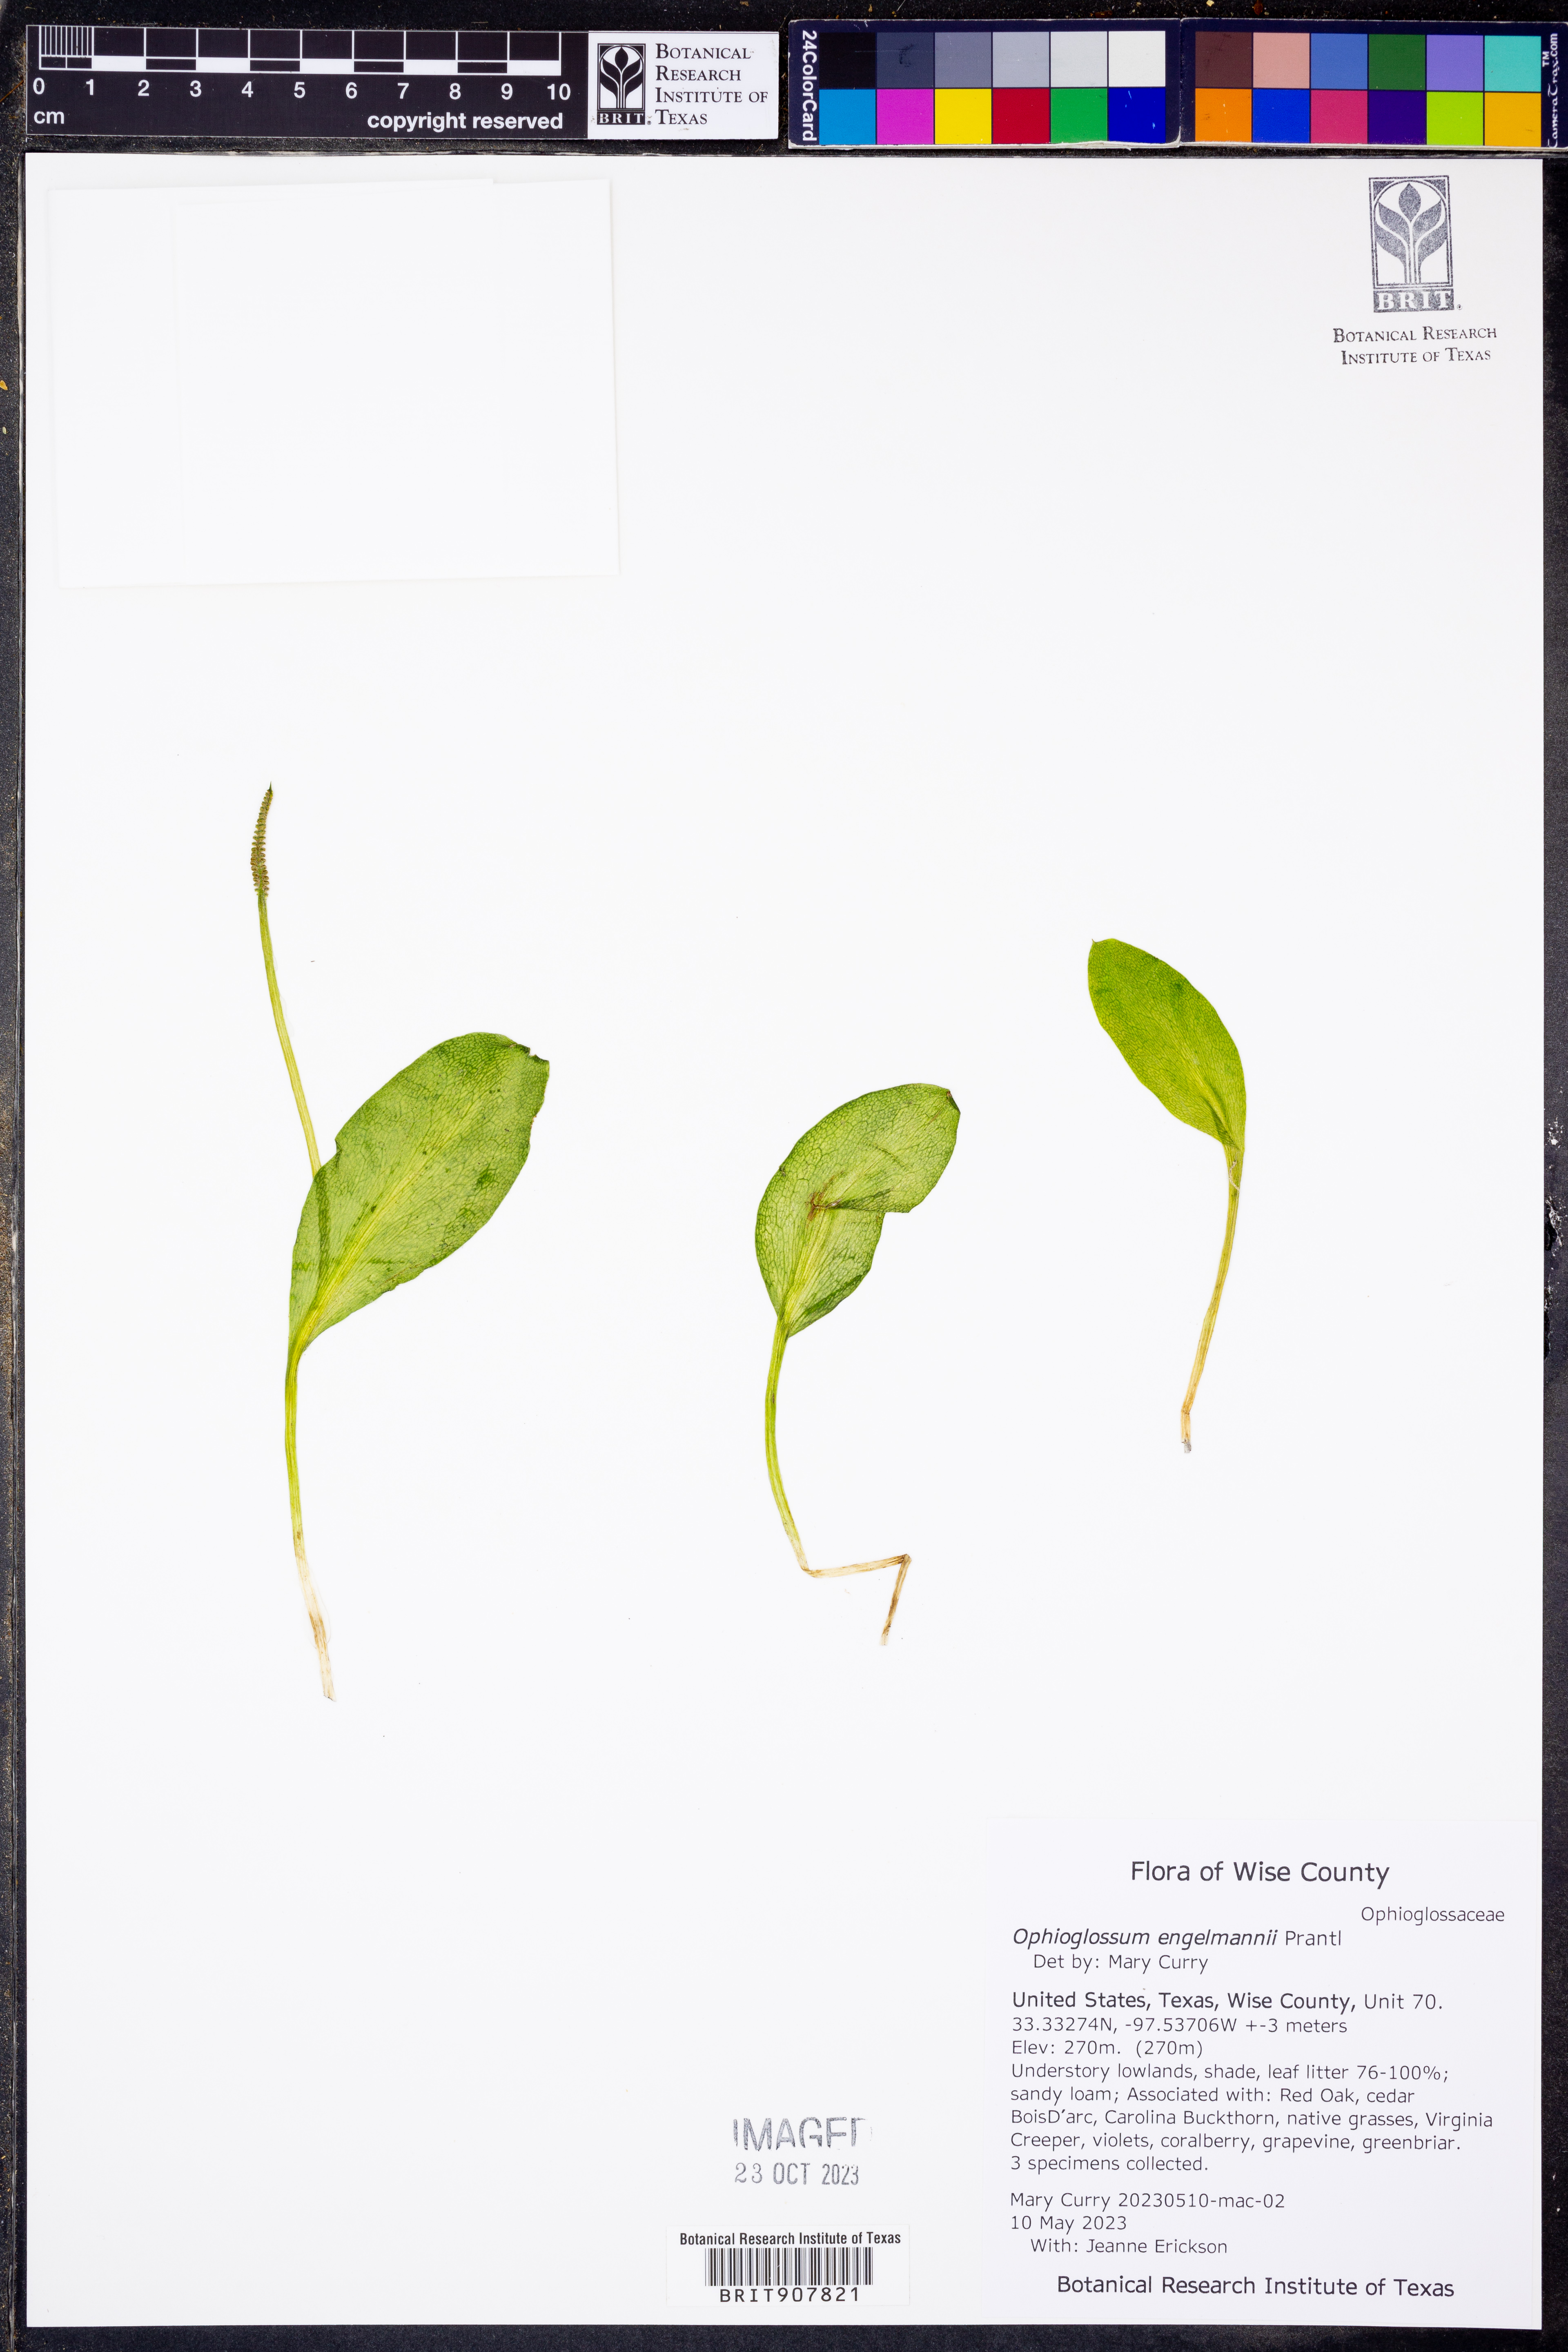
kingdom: Plantae
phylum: Tracheophyta
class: Polypodiopsida
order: Ophioglossales
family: Ophioglossaceae
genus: Ophioglossum
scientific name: Ophioglossum engelmannii
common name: Limestone adder's-tongue
